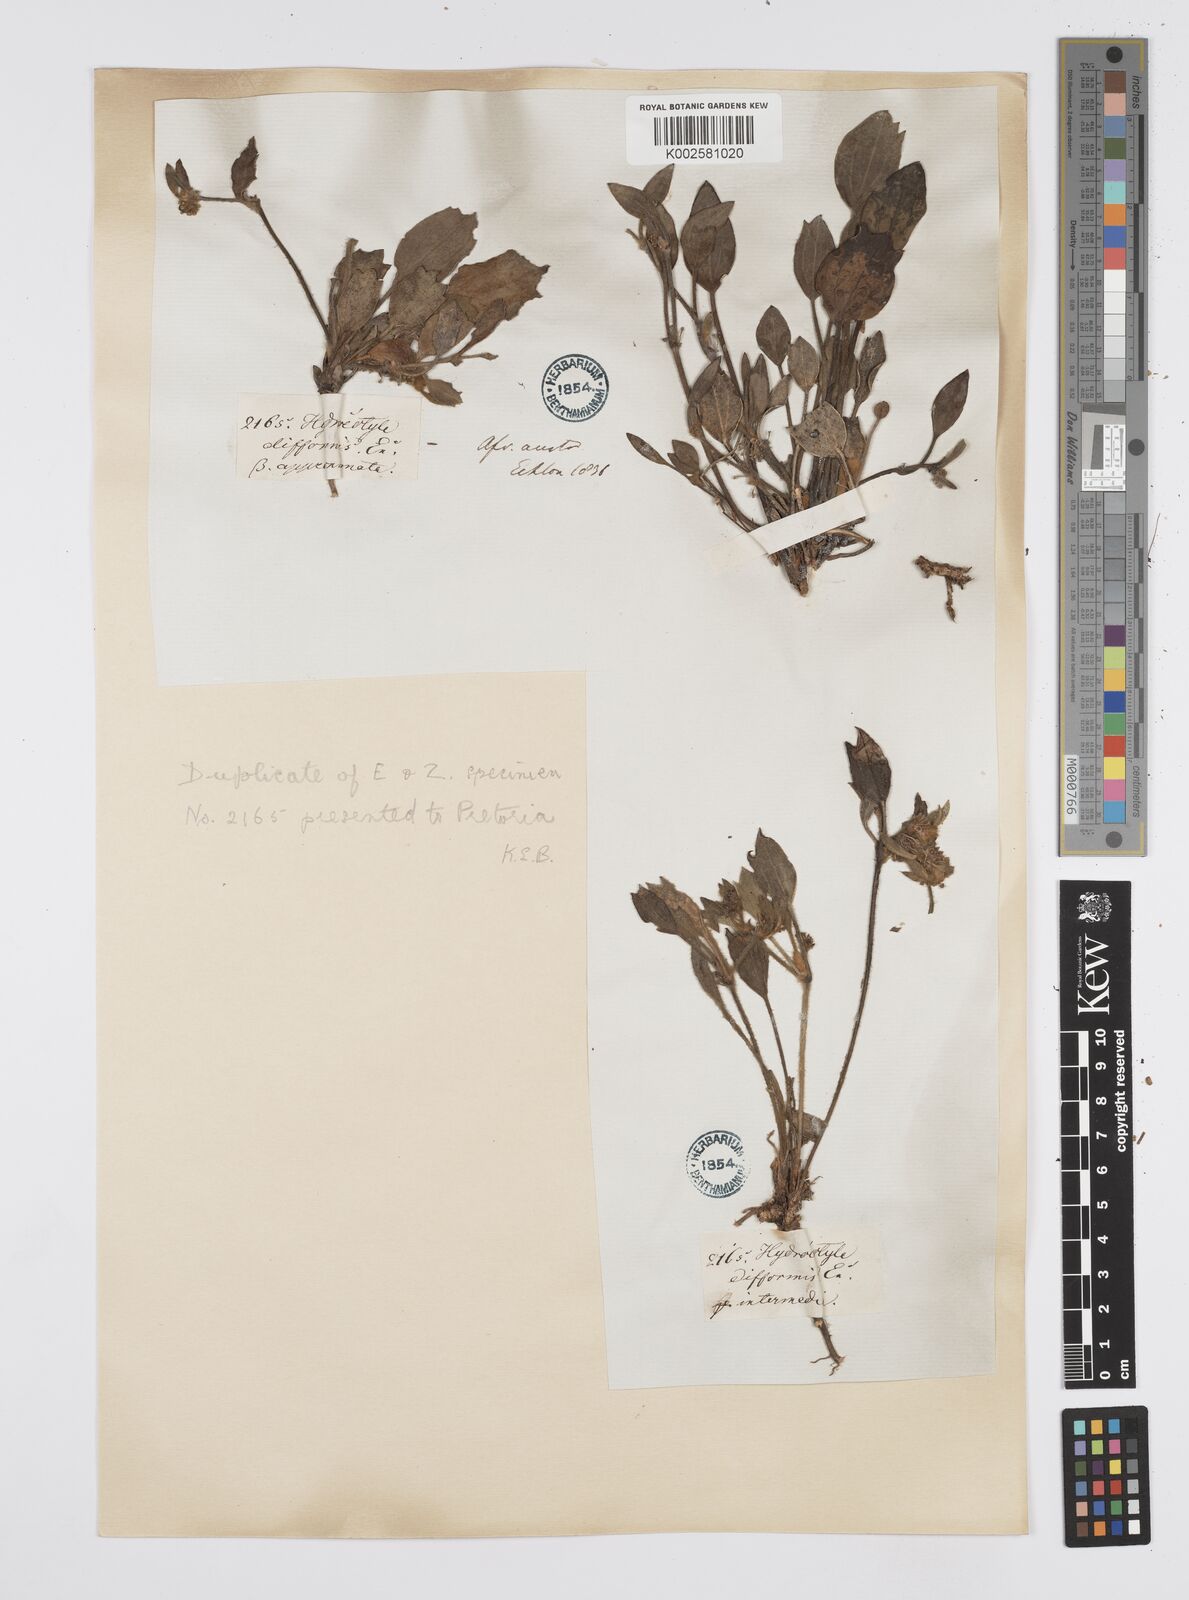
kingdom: Plantae
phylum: Tracheophyta
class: Magnoliopsida
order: Apiales
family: Apiaceae
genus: Centella
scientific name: Centella difformis
